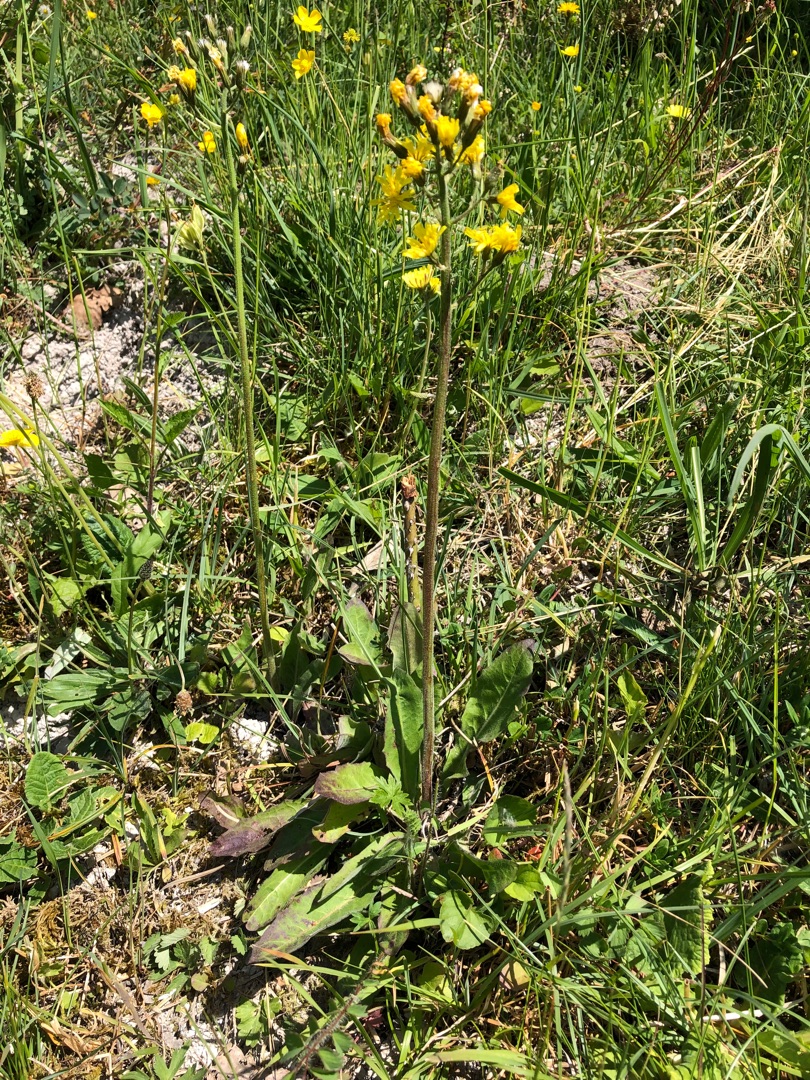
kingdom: Plantae
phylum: Tracheophyta
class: Magnoliopsida
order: Asterales
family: Asteraceae
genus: Crepis
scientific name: Crepis praemorsa
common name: Afbidt høgeskæg
